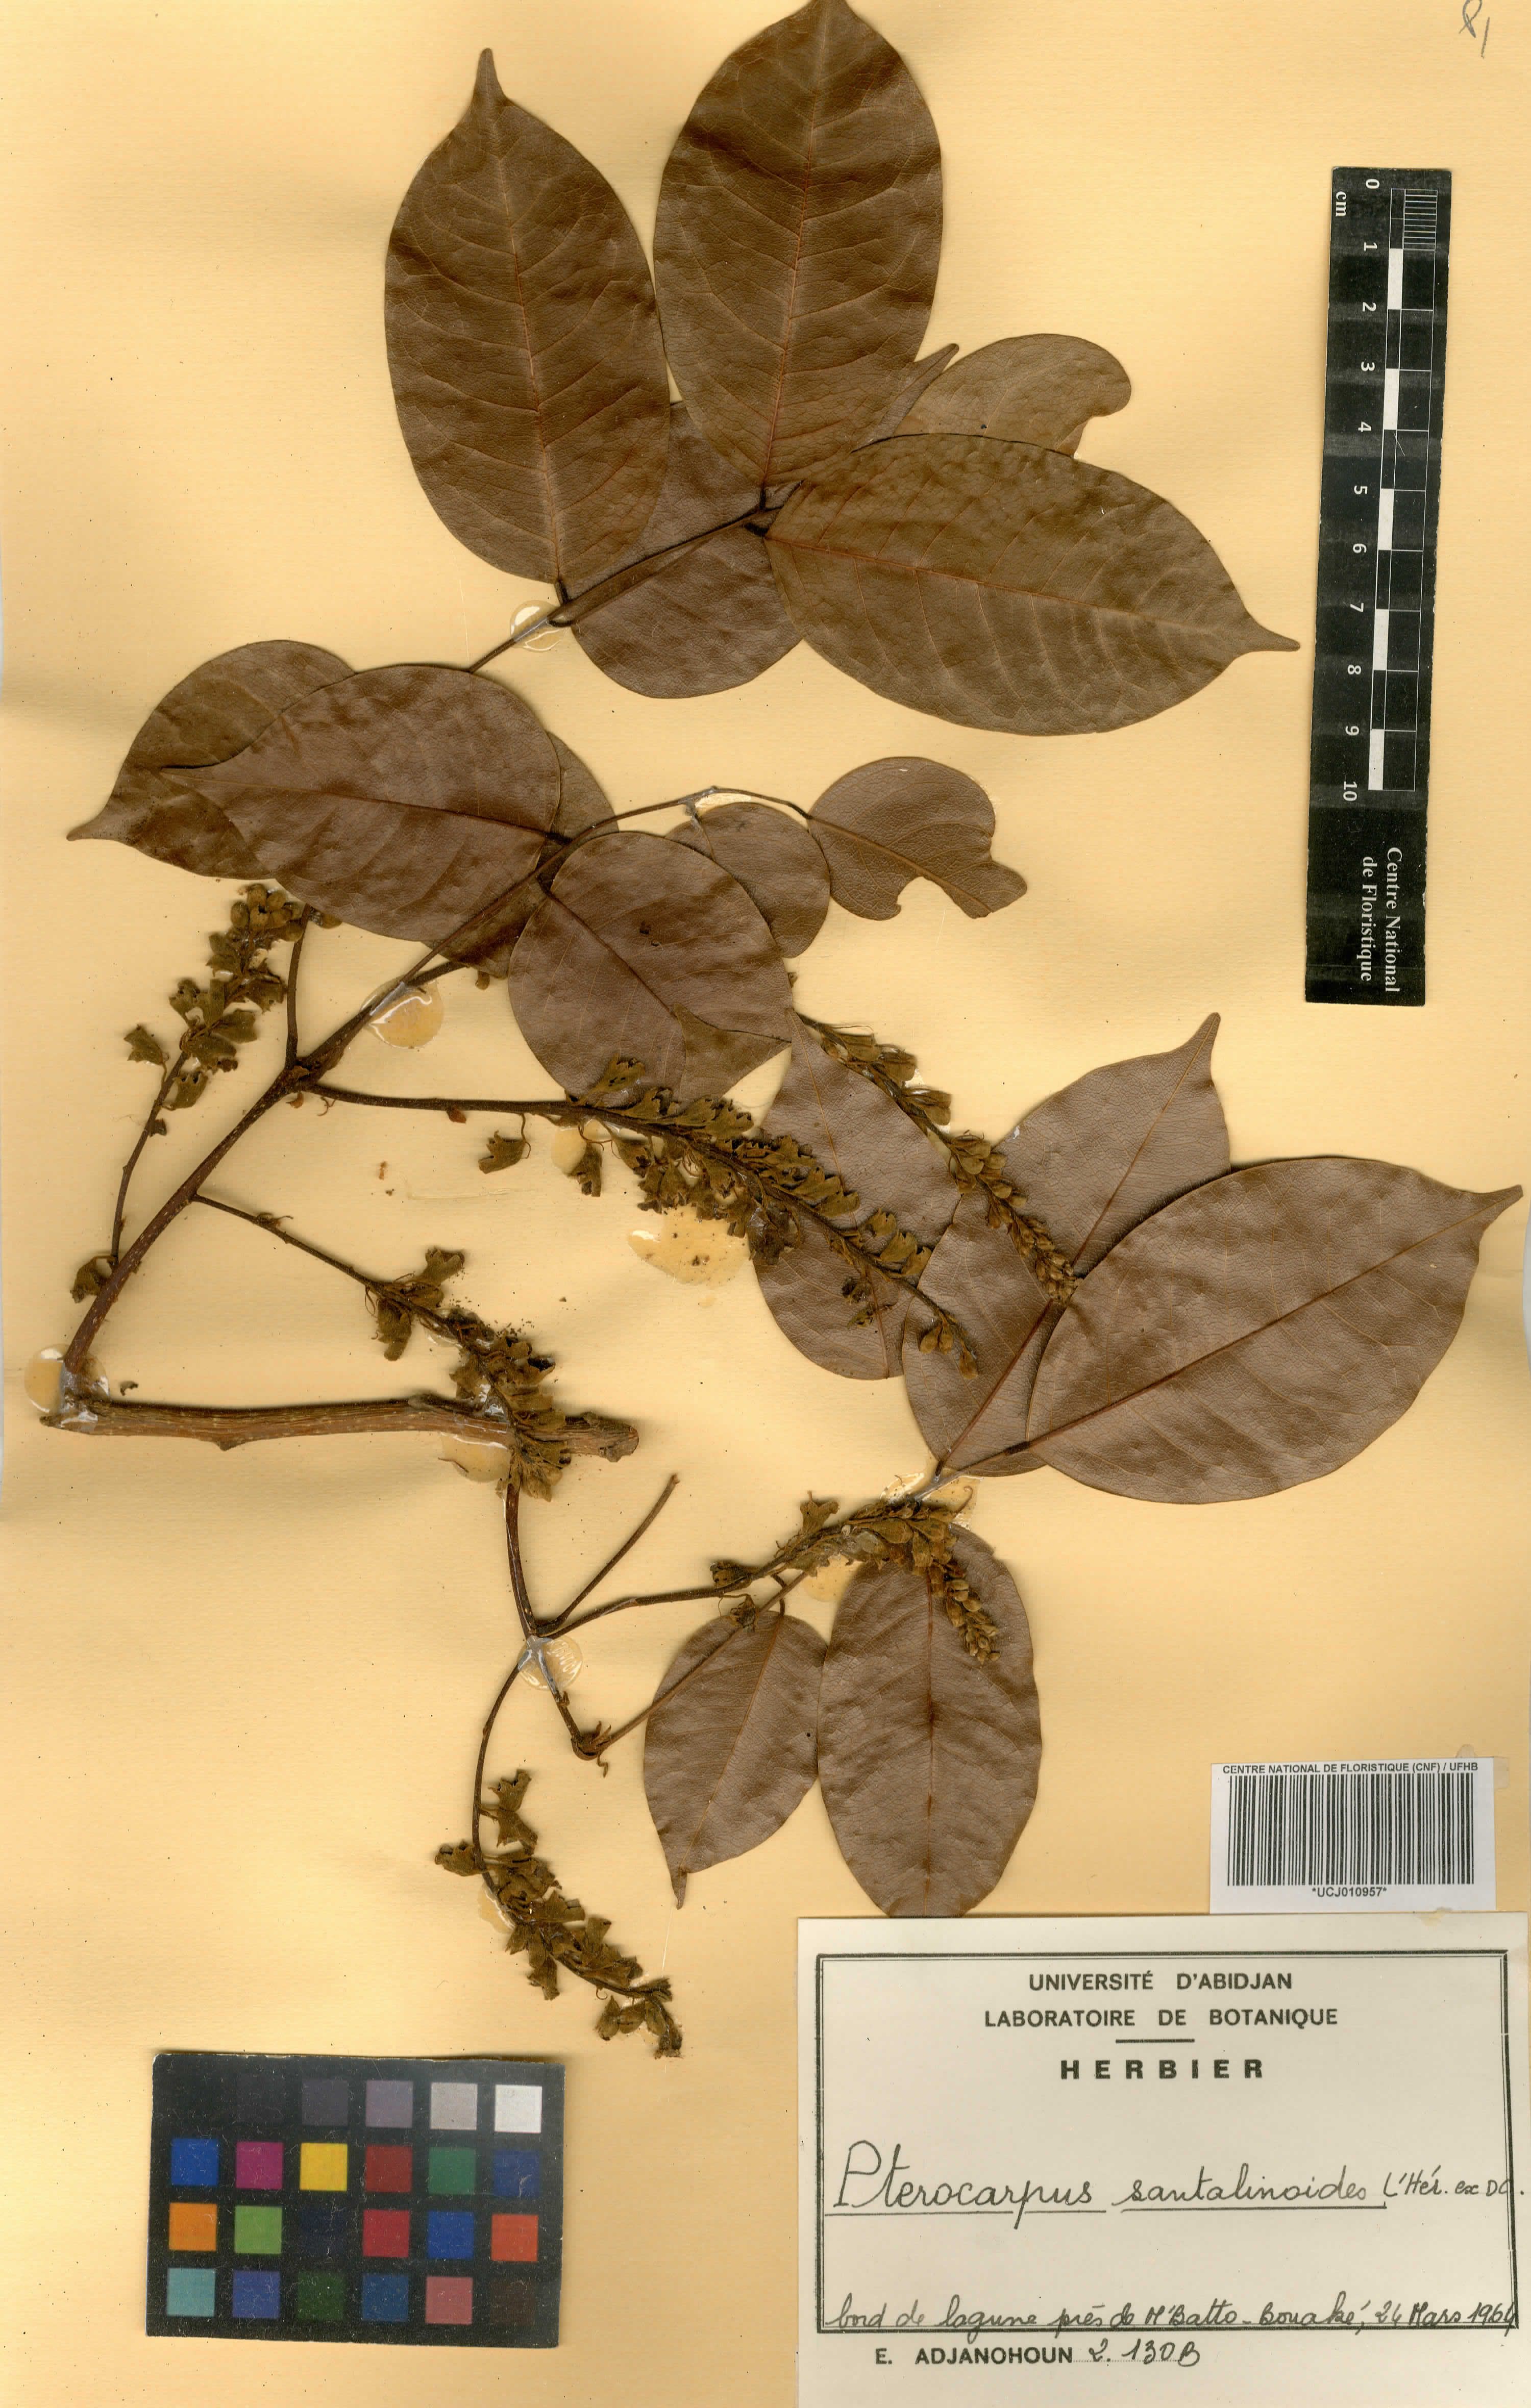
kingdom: Plantae
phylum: Tracheophyta
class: Magnoliopsida
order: Fabales
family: Fabaceae
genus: Pterocarpus
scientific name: Pterocarpus santalinoides
